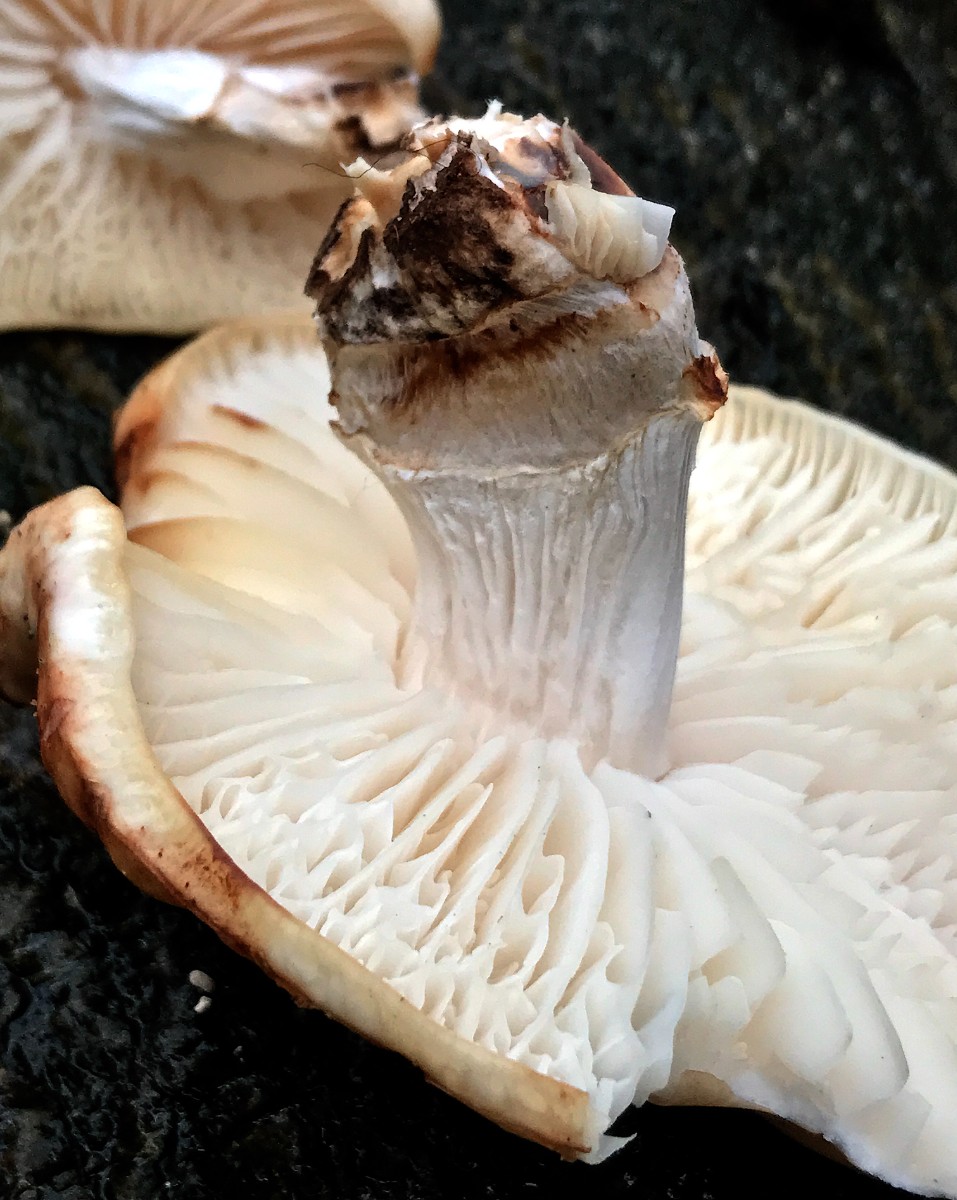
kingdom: Fungi
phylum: Basidiomycota
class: Agaricomycetes
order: Agaricales
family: Physalacriaceae
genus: Mucidula
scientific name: Mucidula mucida
